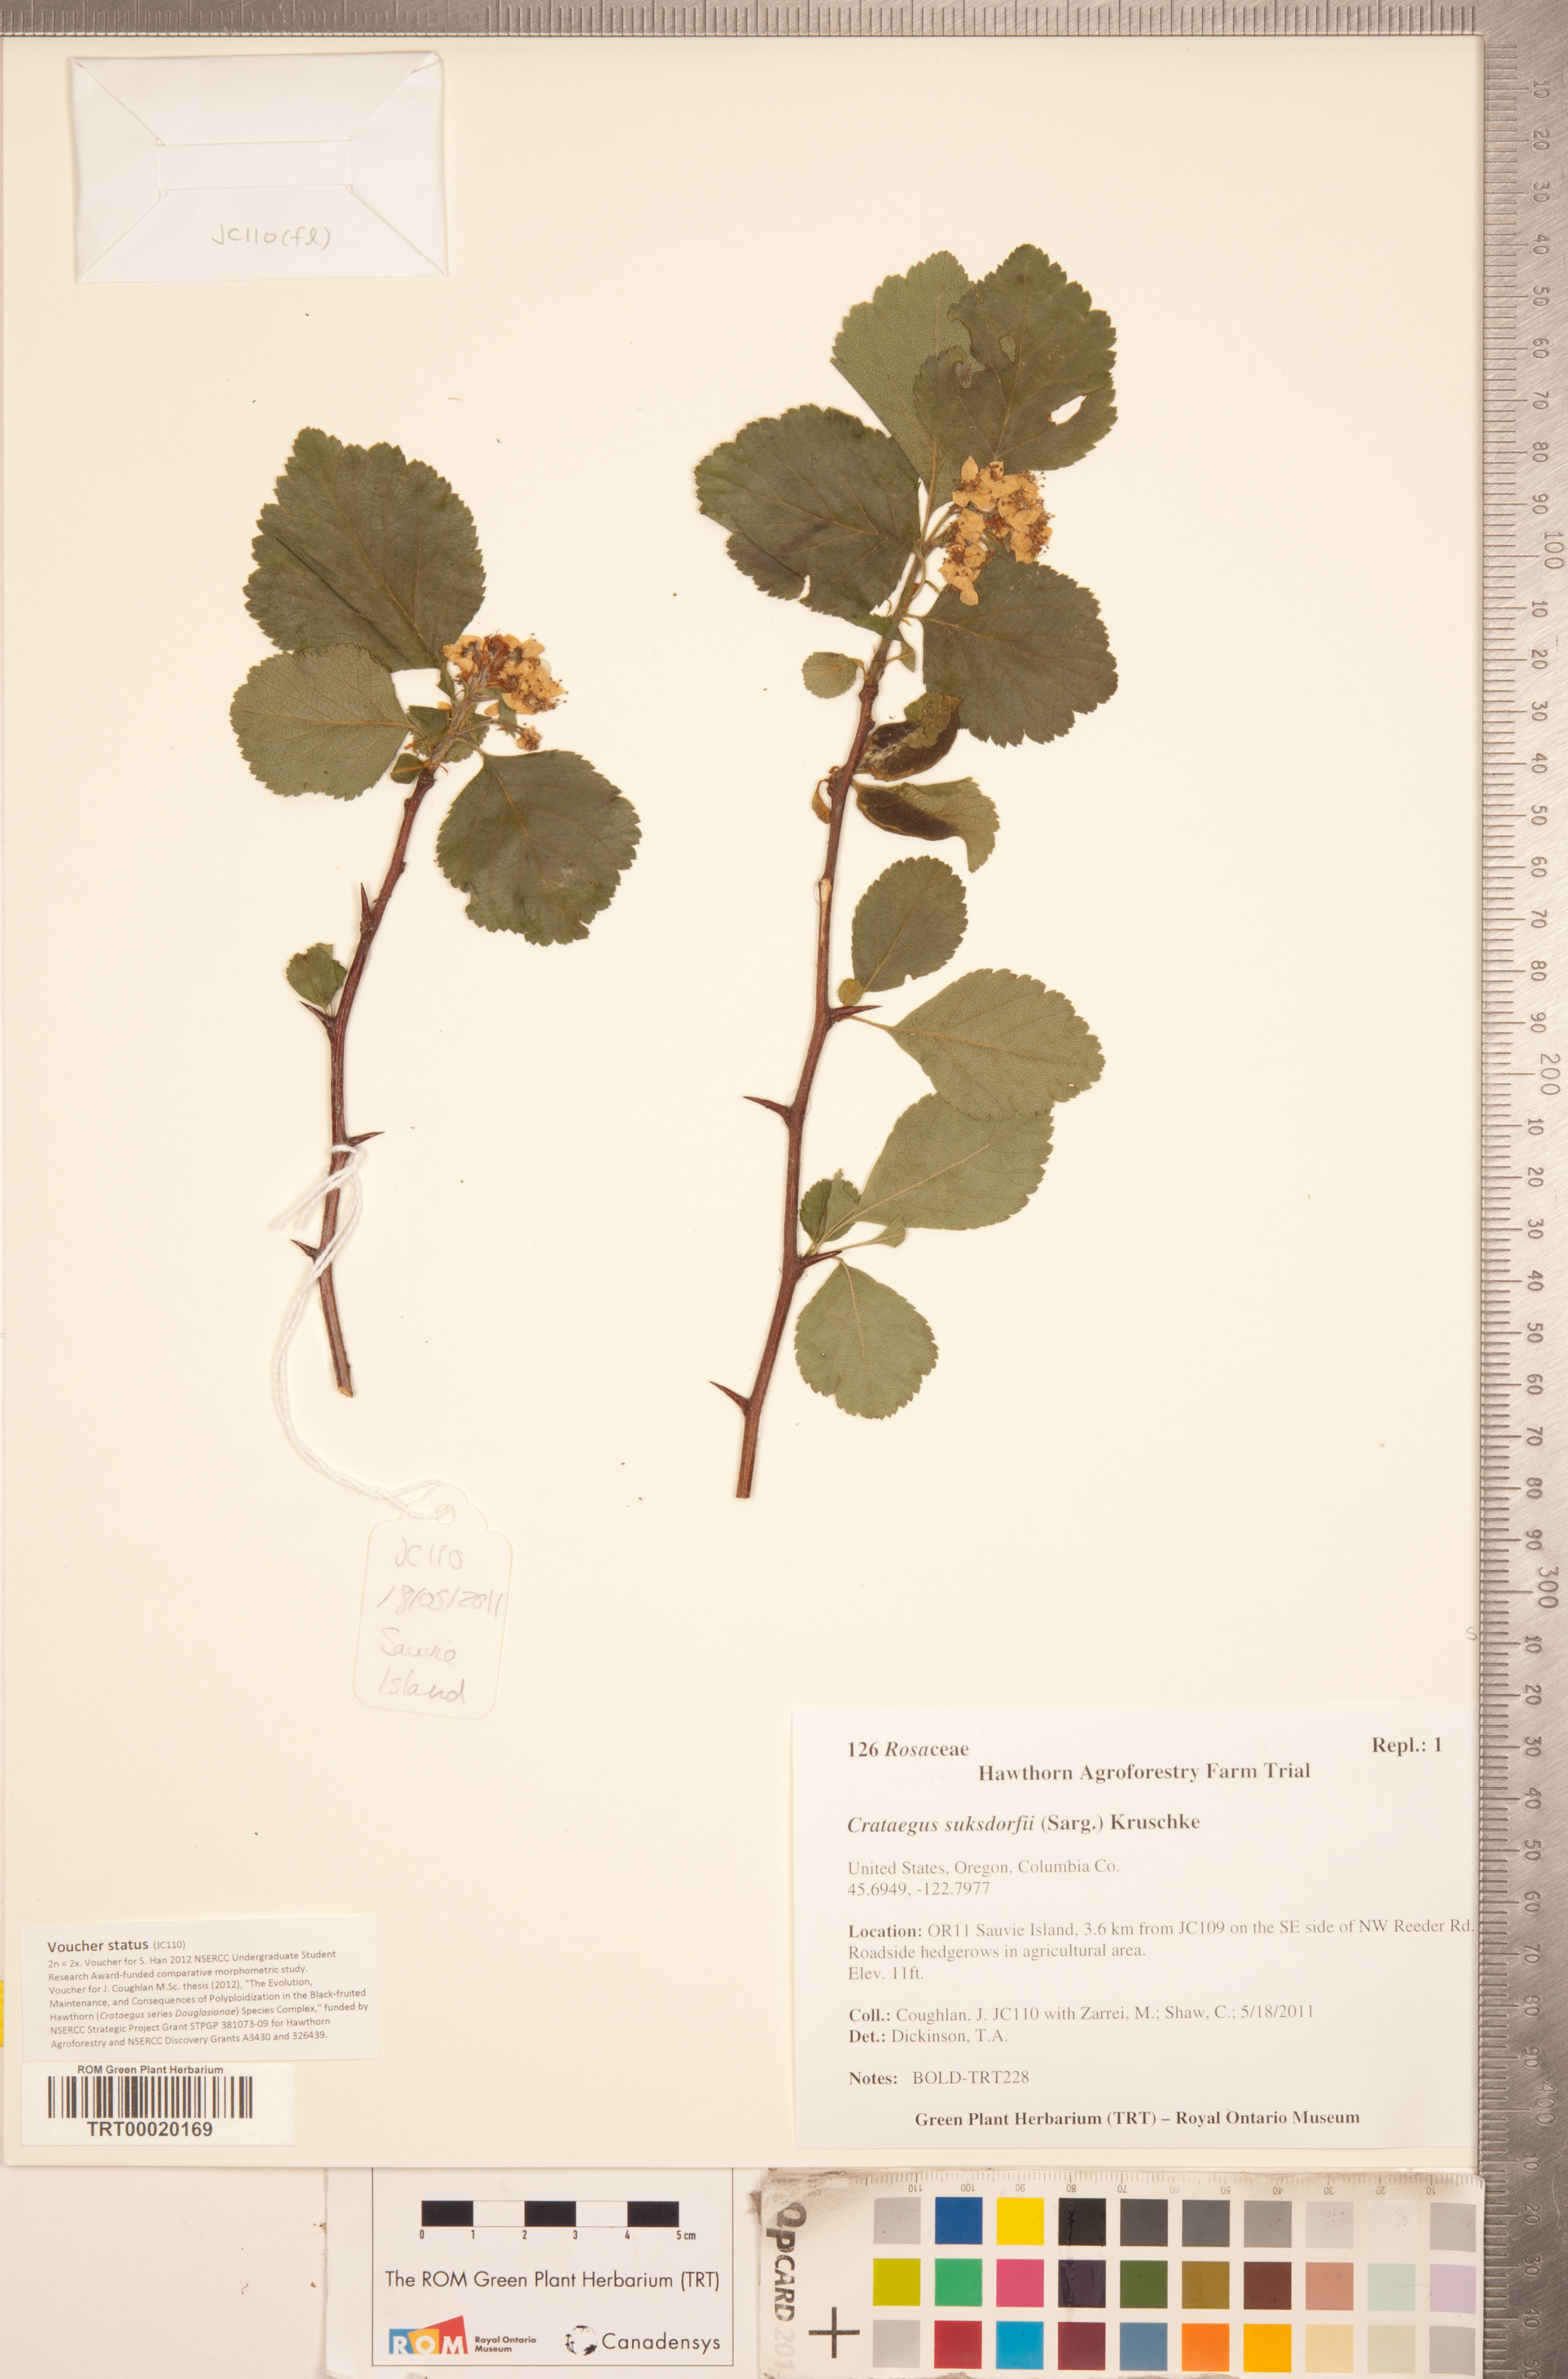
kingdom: Plantae
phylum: Tracheophyta
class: Magnoliopsida
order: Rosales
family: Rosaceae
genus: Crataegus
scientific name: Crataegus gaylussacia
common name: Huckleberry hawthorn
